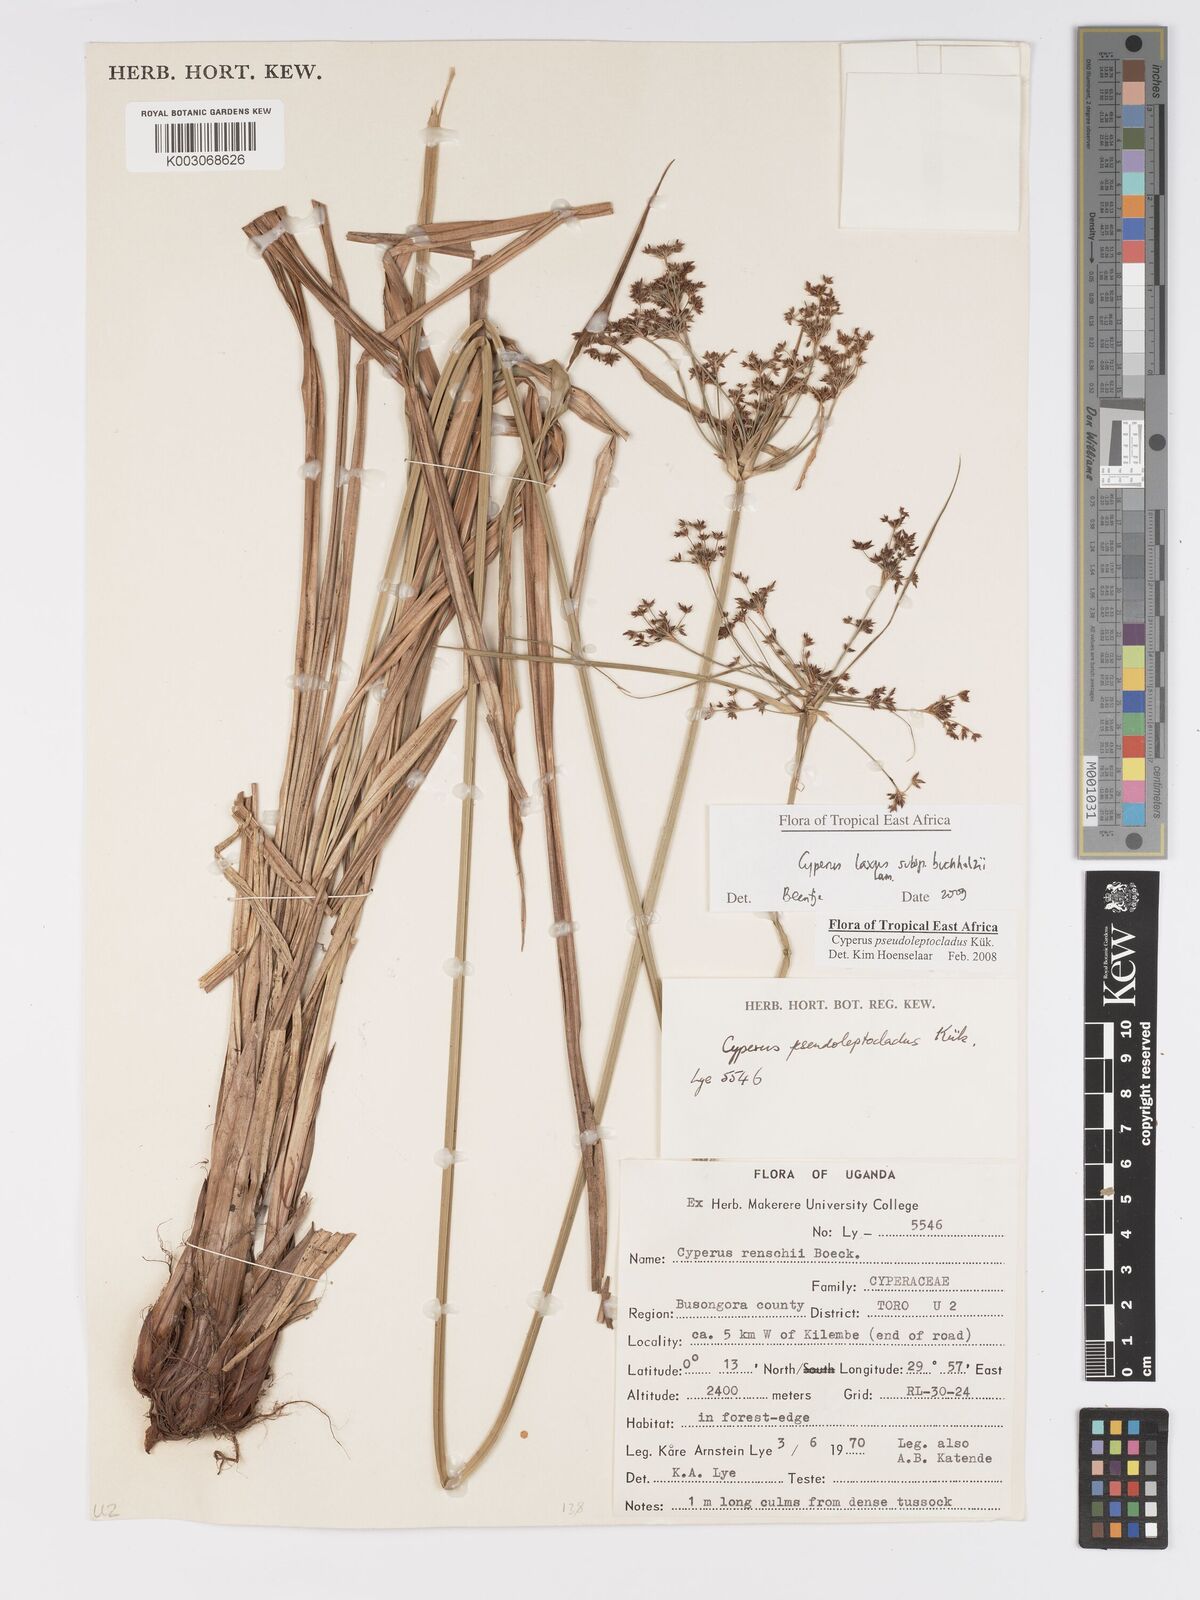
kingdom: Plantae
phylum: Tracheophyta
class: Liliopsida
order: Poales
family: Cyperaceae
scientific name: Cyperaceae
